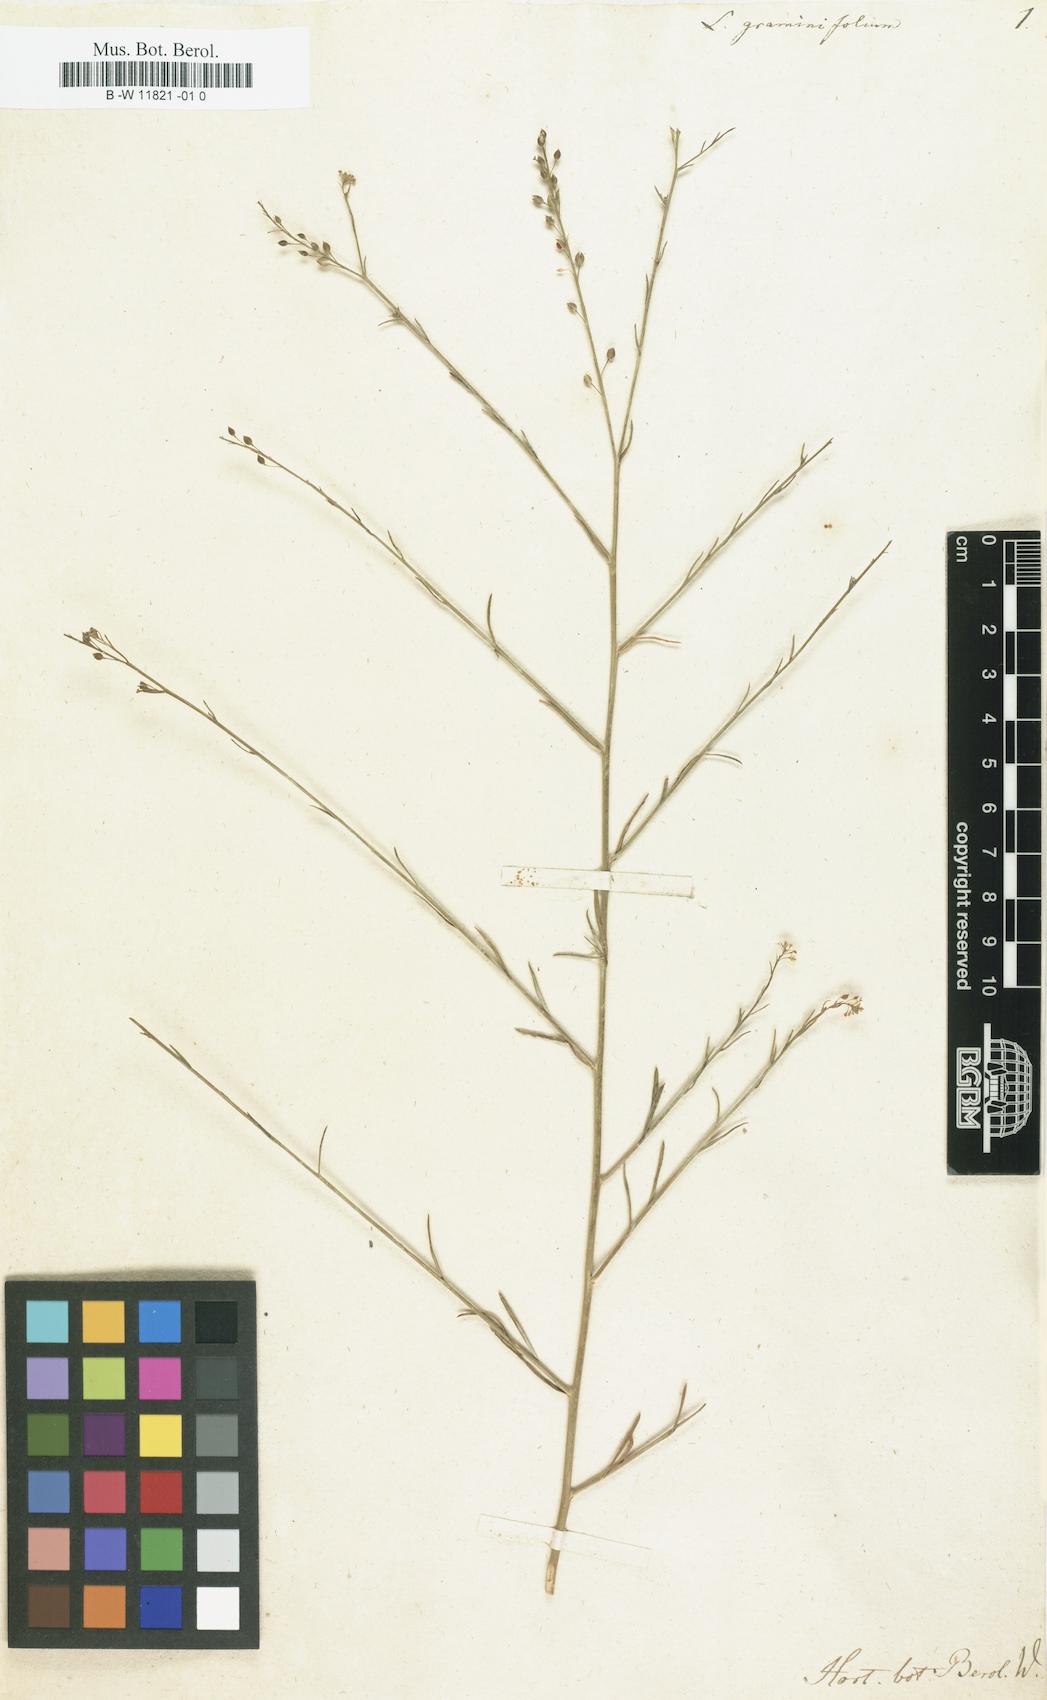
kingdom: Plantae
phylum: Tracheophyta
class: Magnoliopsida
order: Brassicales
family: Brassicaceae
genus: Lepidium
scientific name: Lepidium graminifolium
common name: Tall pepperwort
